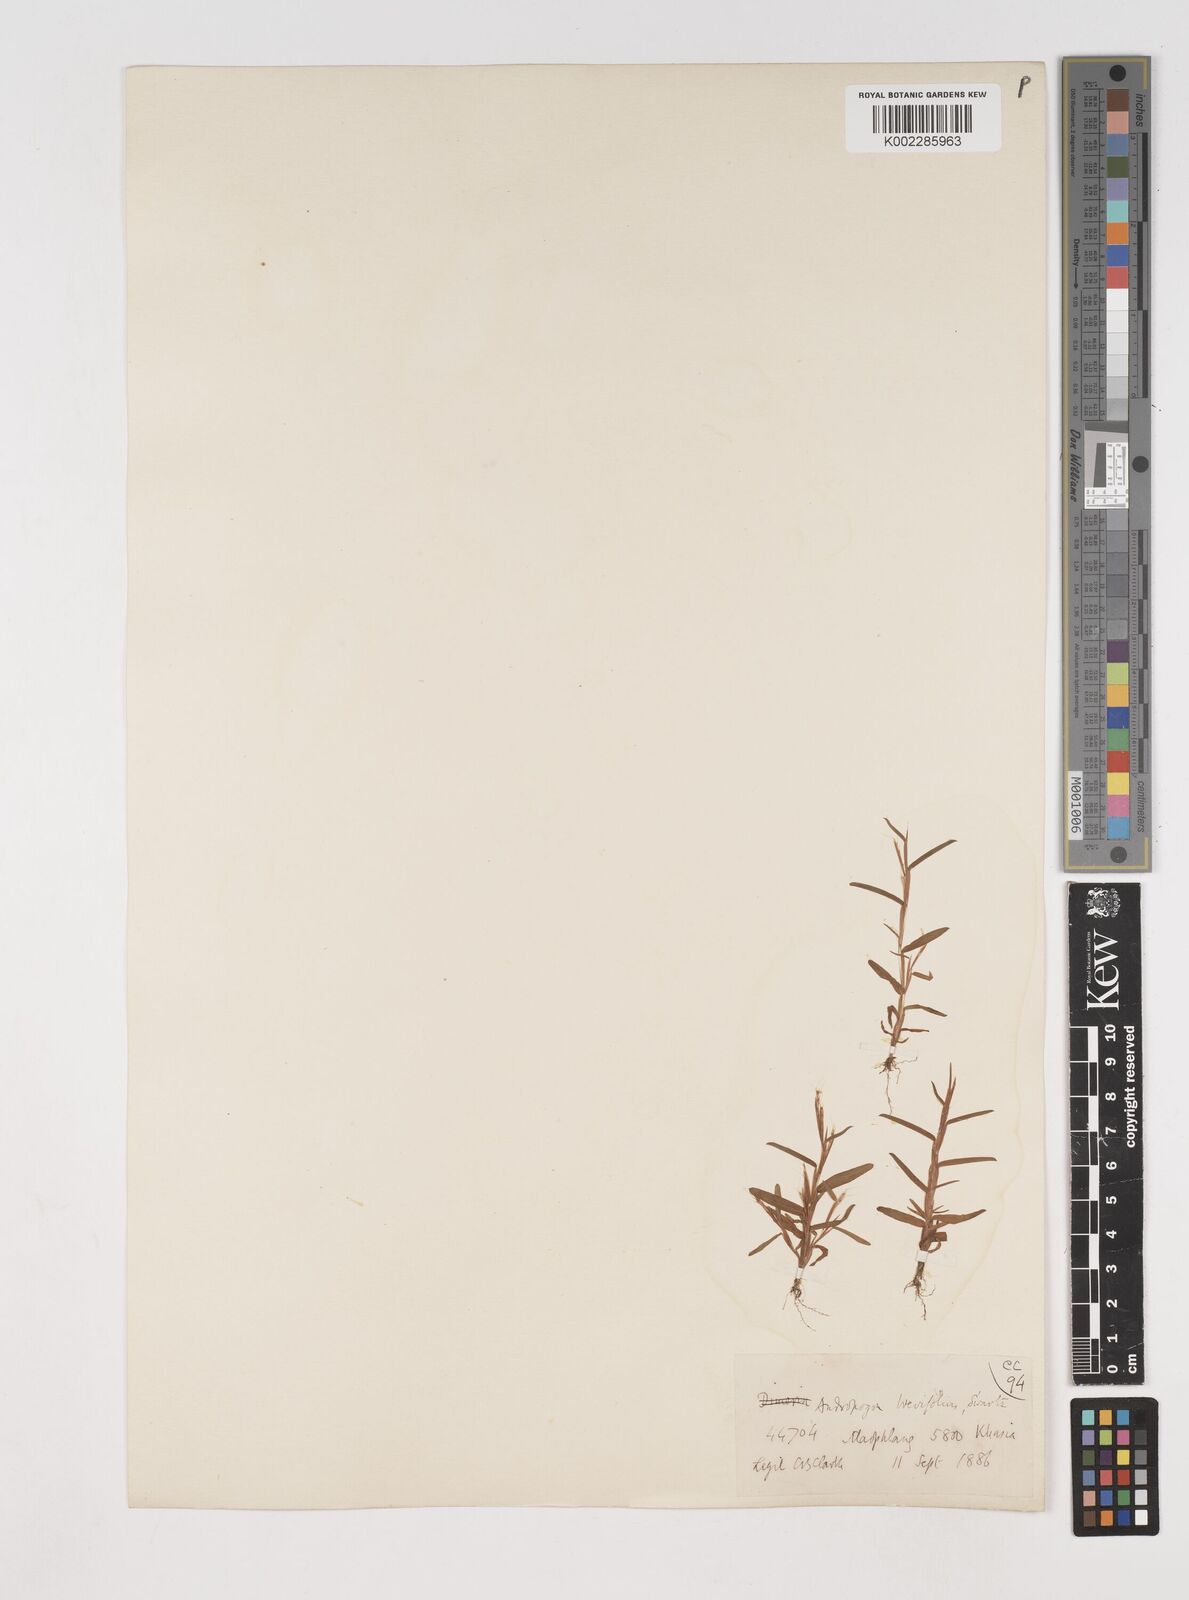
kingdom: Plantae
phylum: Tracheophyta
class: Liliopsida
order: Poales
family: Poaceae
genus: Schizachyrium
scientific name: Schizachyrium brevifolium
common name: Serillo dulce
